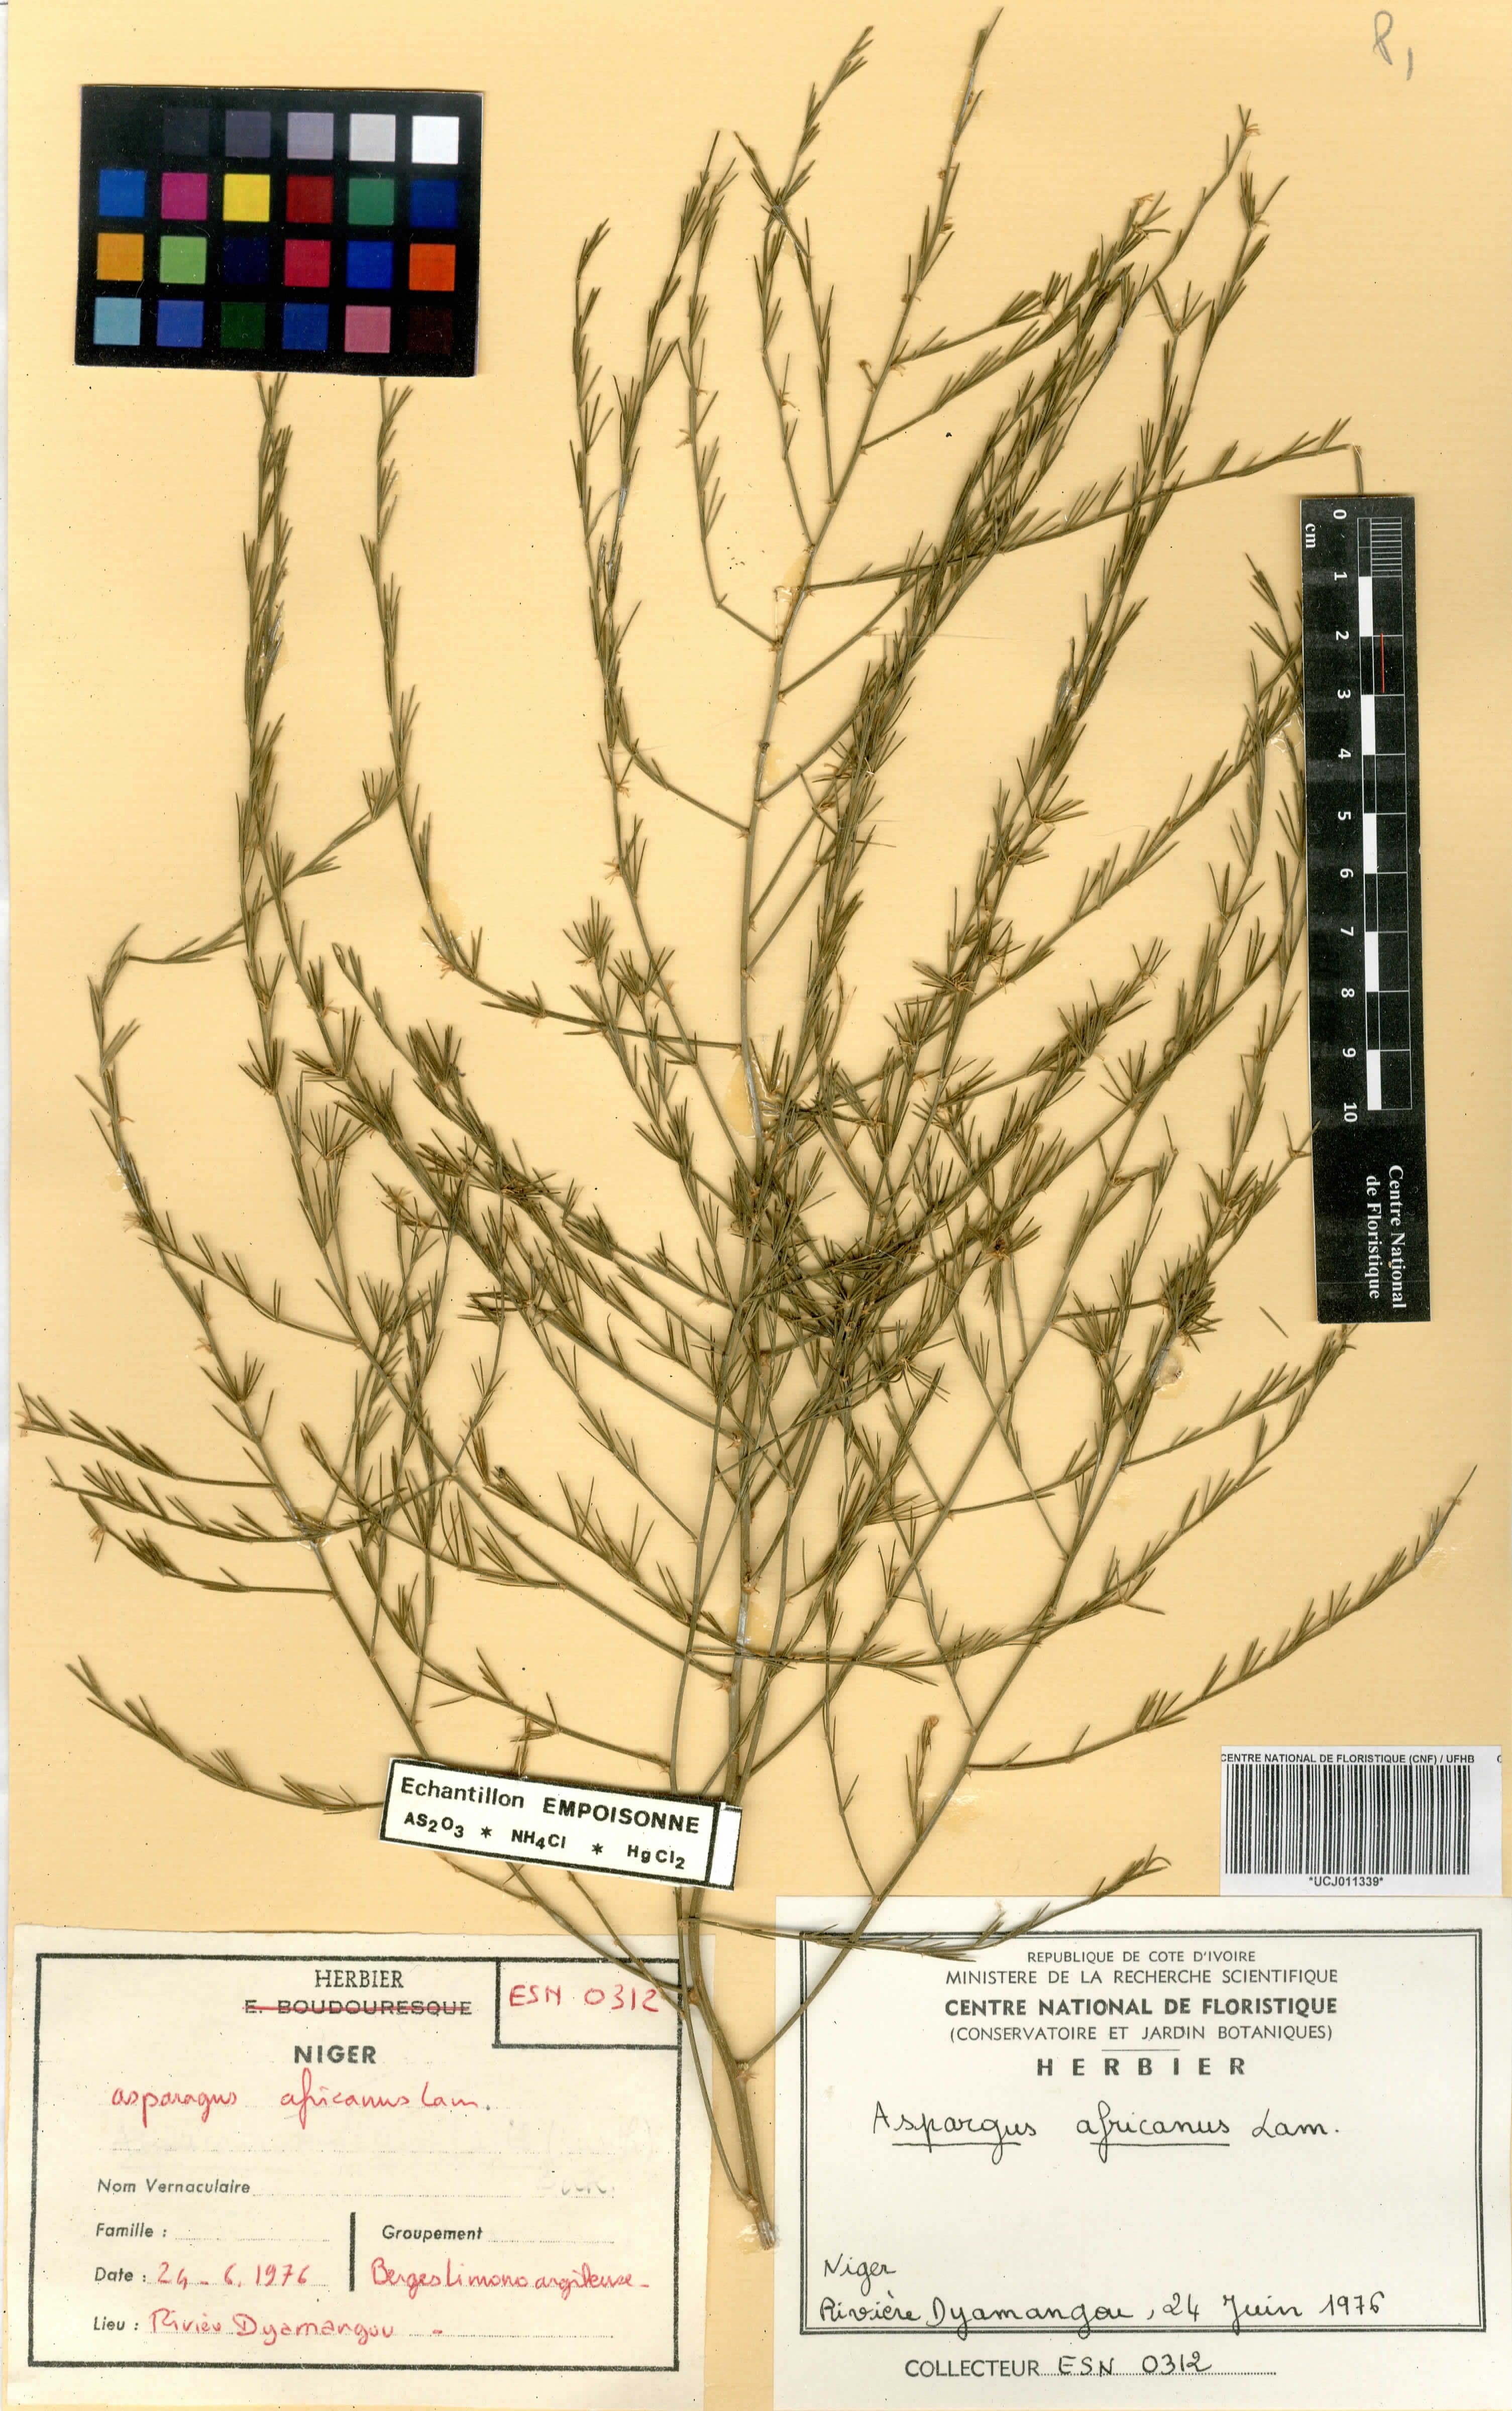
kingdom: Plantae
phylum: Tracheophyta
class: Liliopsida
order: Asparagales
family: Asparagaceae
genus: Asparagus
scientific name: Asparagus africanus
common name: Asparagus-fern
